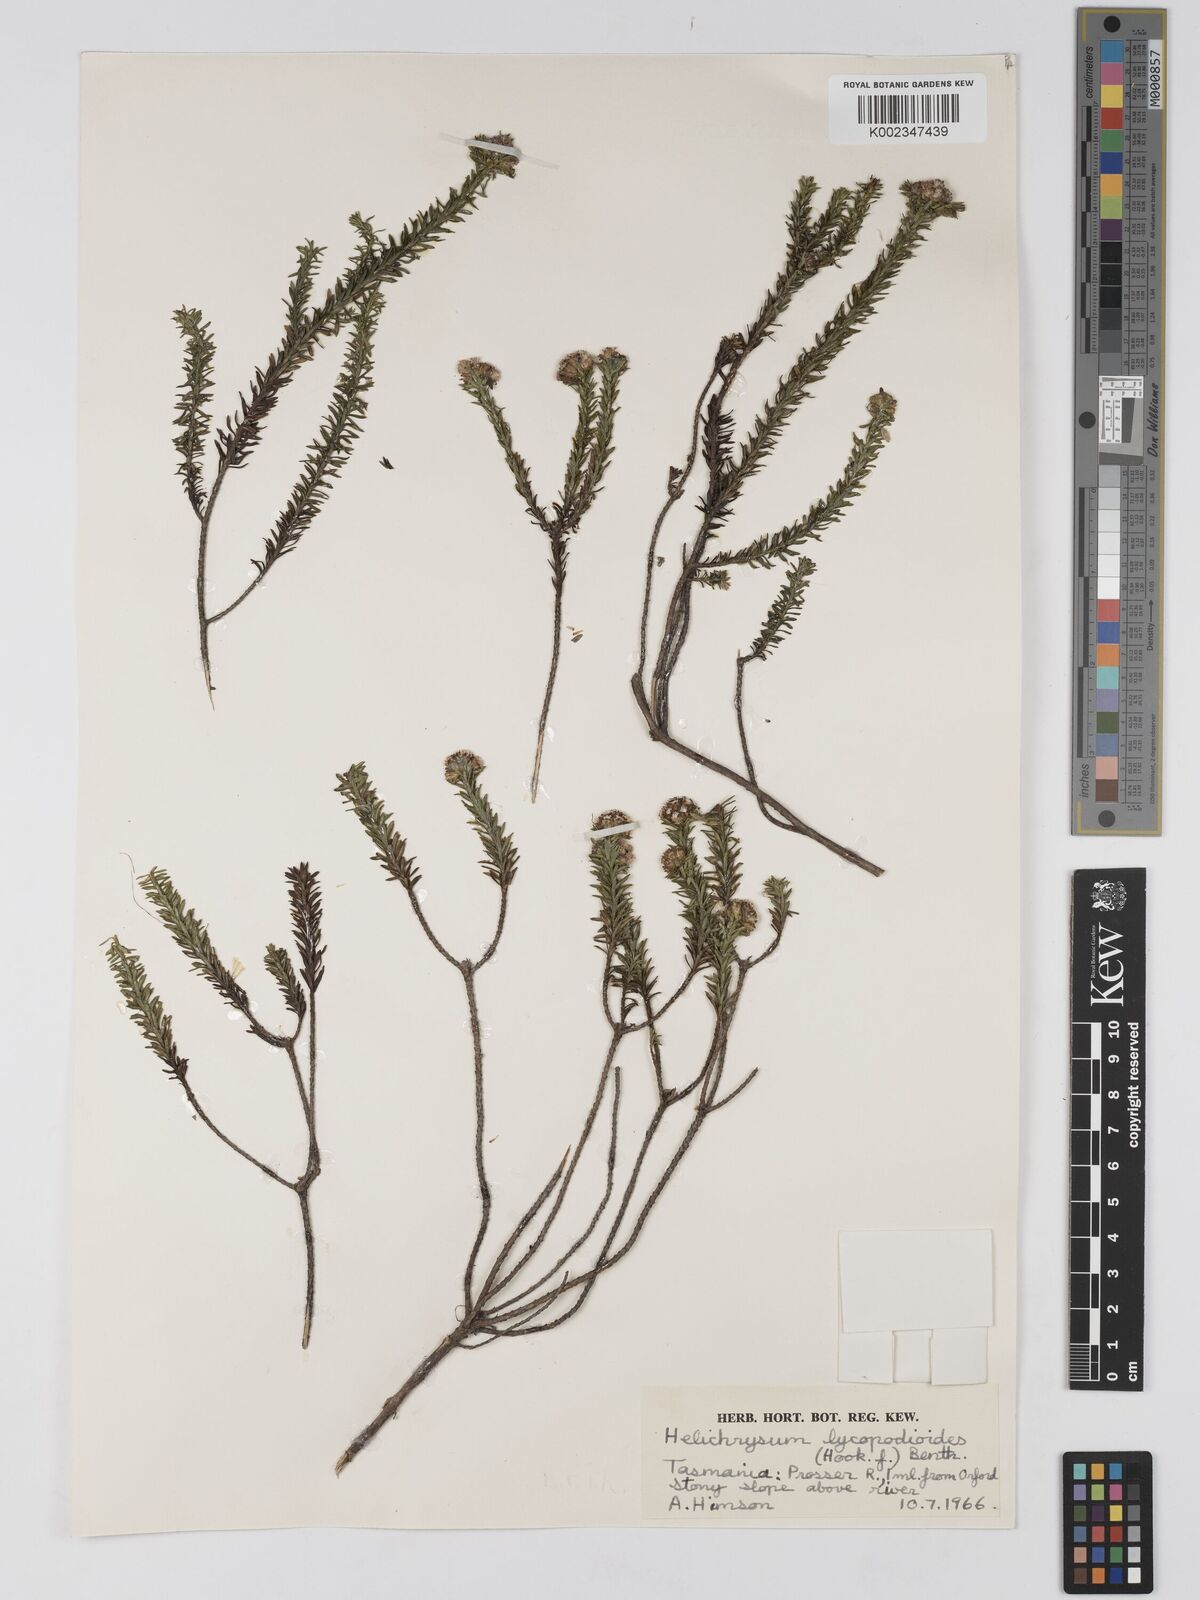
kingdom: Plantae
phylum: Tracheophyta
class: Magnoliopsida
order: Asterales
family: Asteraceae
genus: Ozothamnus
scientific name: Ozothamnus lycopodioides
